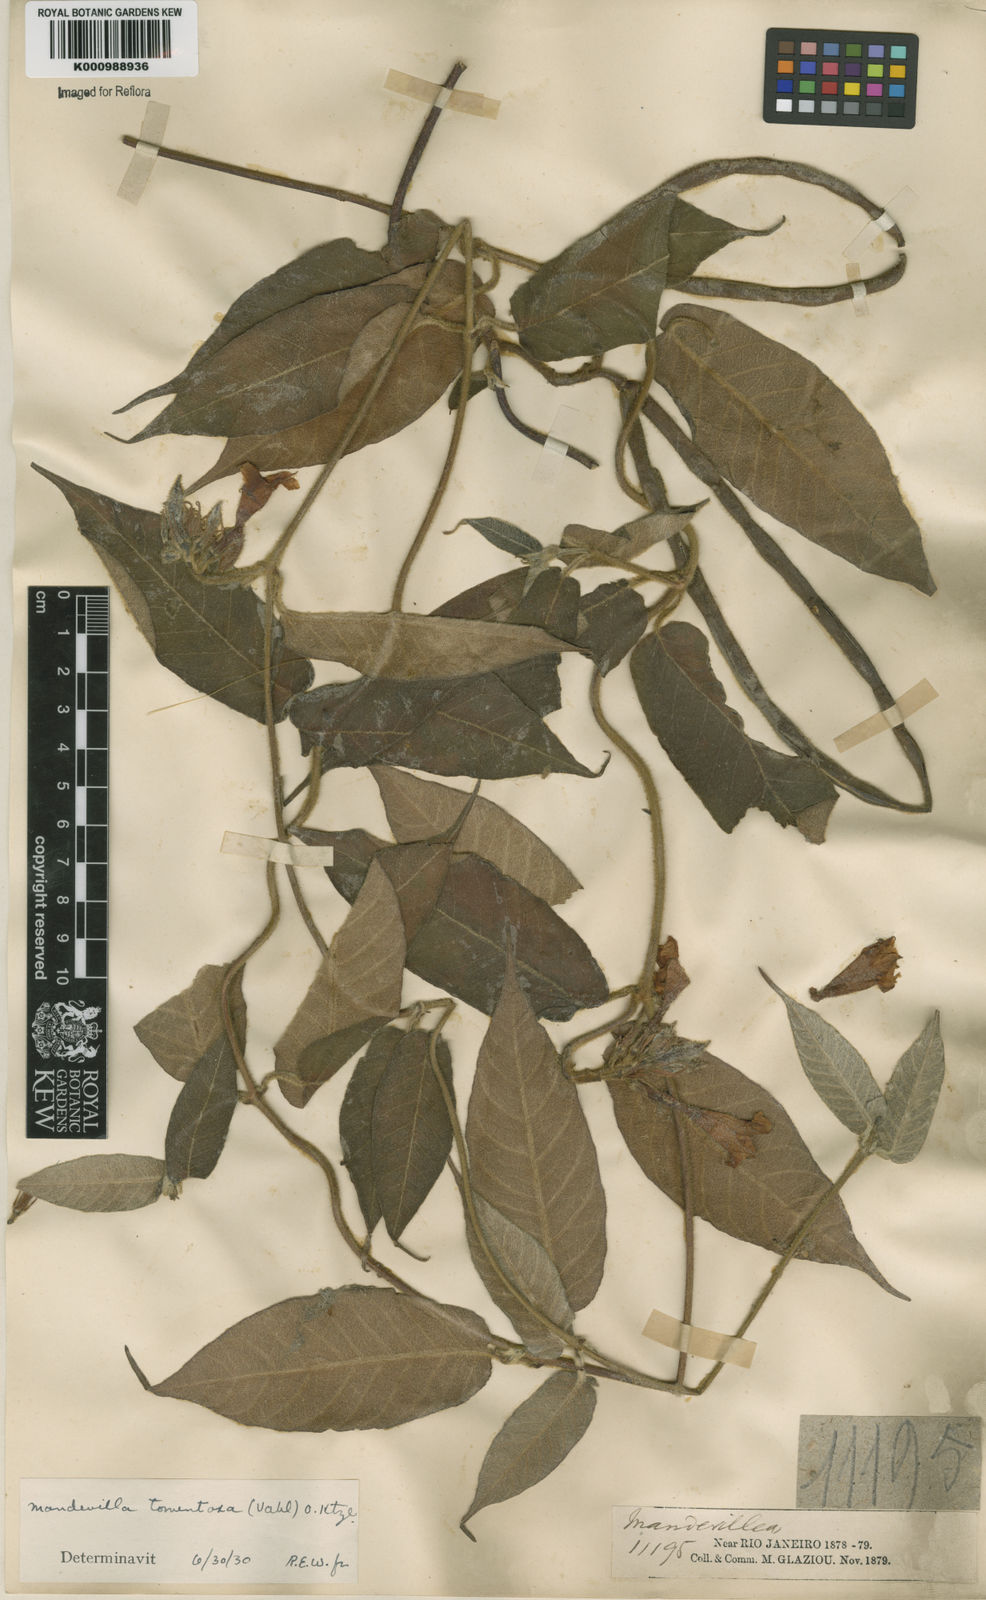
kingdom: Plantae
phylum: Tracheophyta
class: Magnoliopsida
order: Gentianales
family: Apocynaceae
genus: Mandevilla
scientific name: Mandevilla hirsuta
